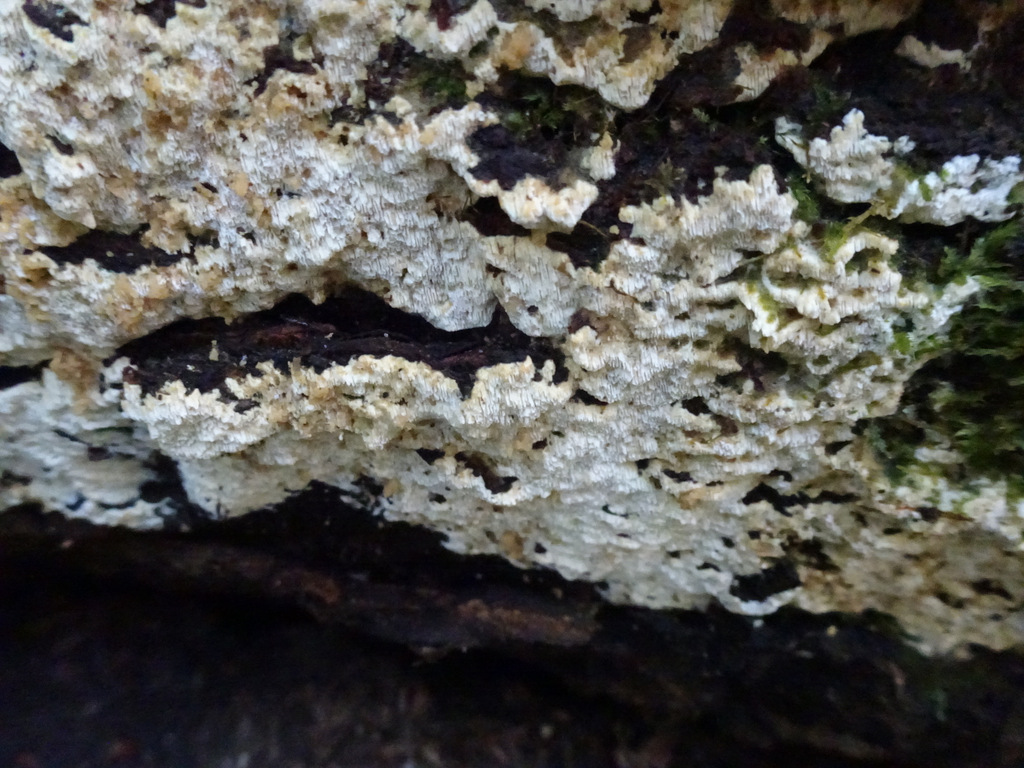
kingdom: Fungi
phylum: Basidiomycota
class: Agaricomycetes
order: Polyporales
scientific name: Polyporales
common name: poresvampordenen
